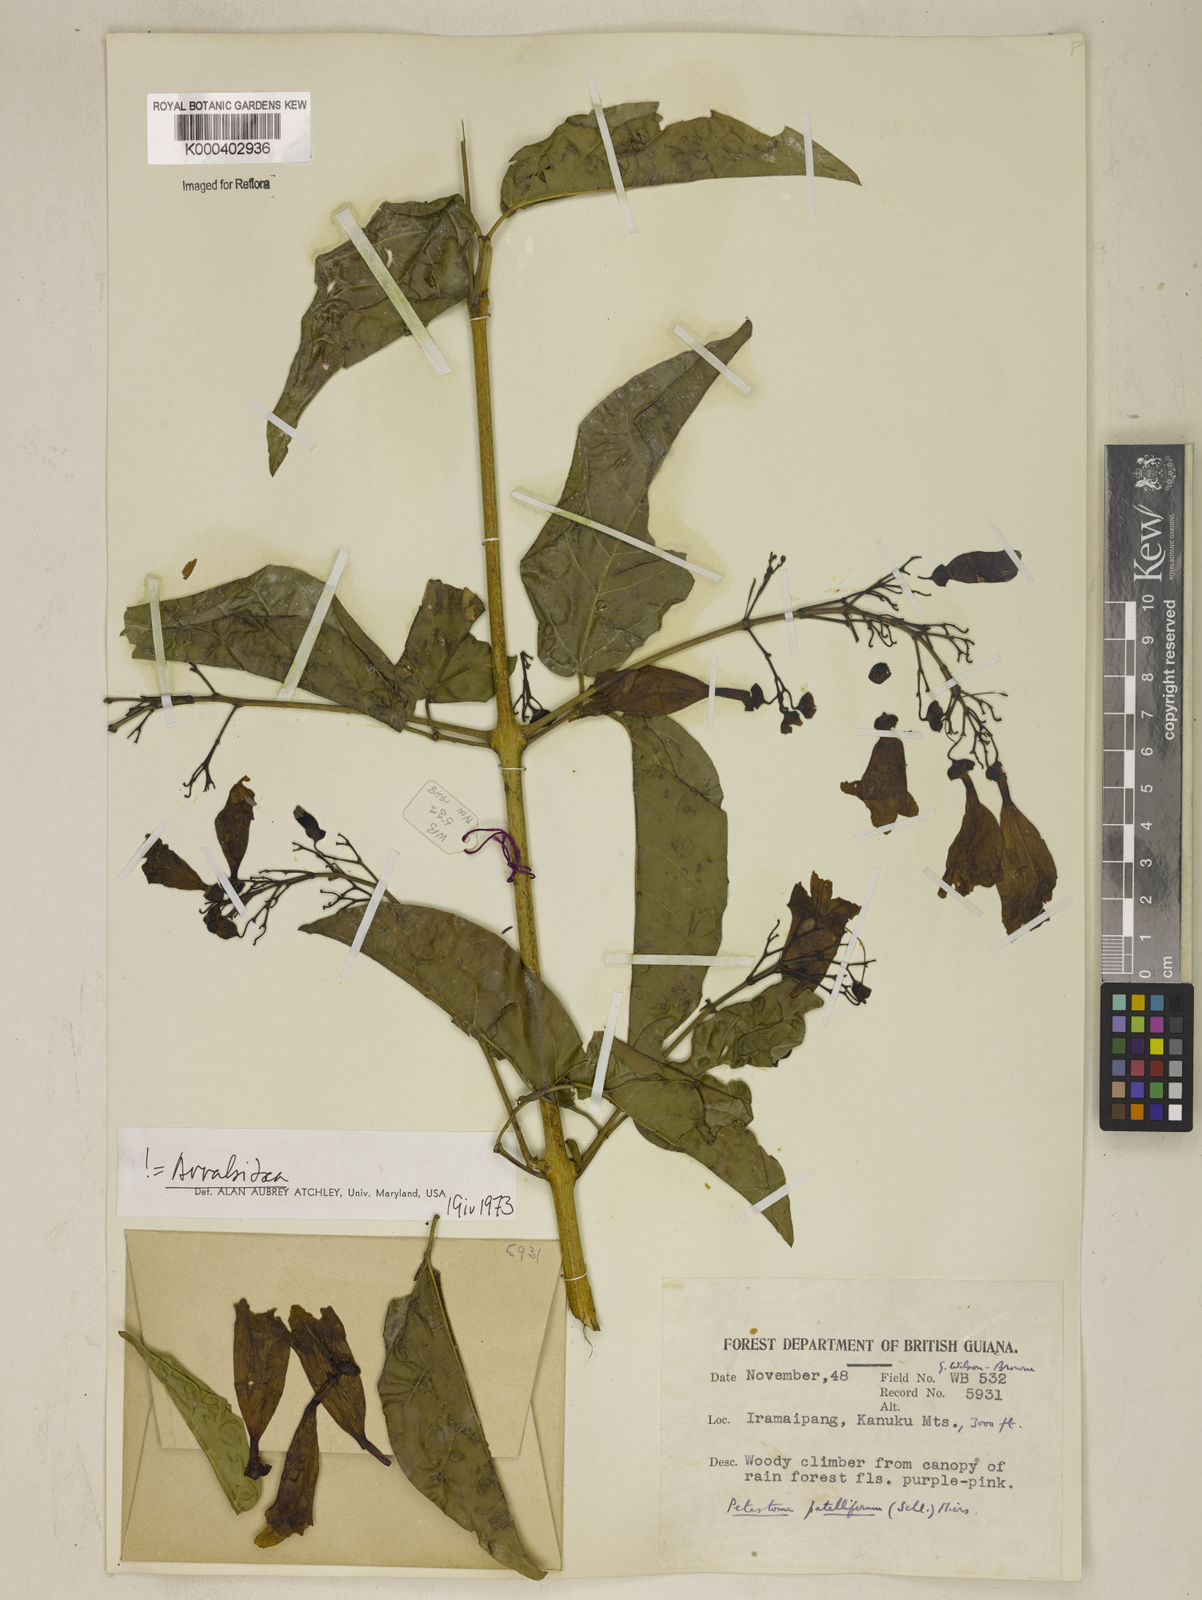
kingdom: Plantae
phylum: Tracheophyta
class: Magnoliopsida
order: Lamiales
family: Bignoniaceae
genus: Fridericia
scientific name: Fridericia patellifera
